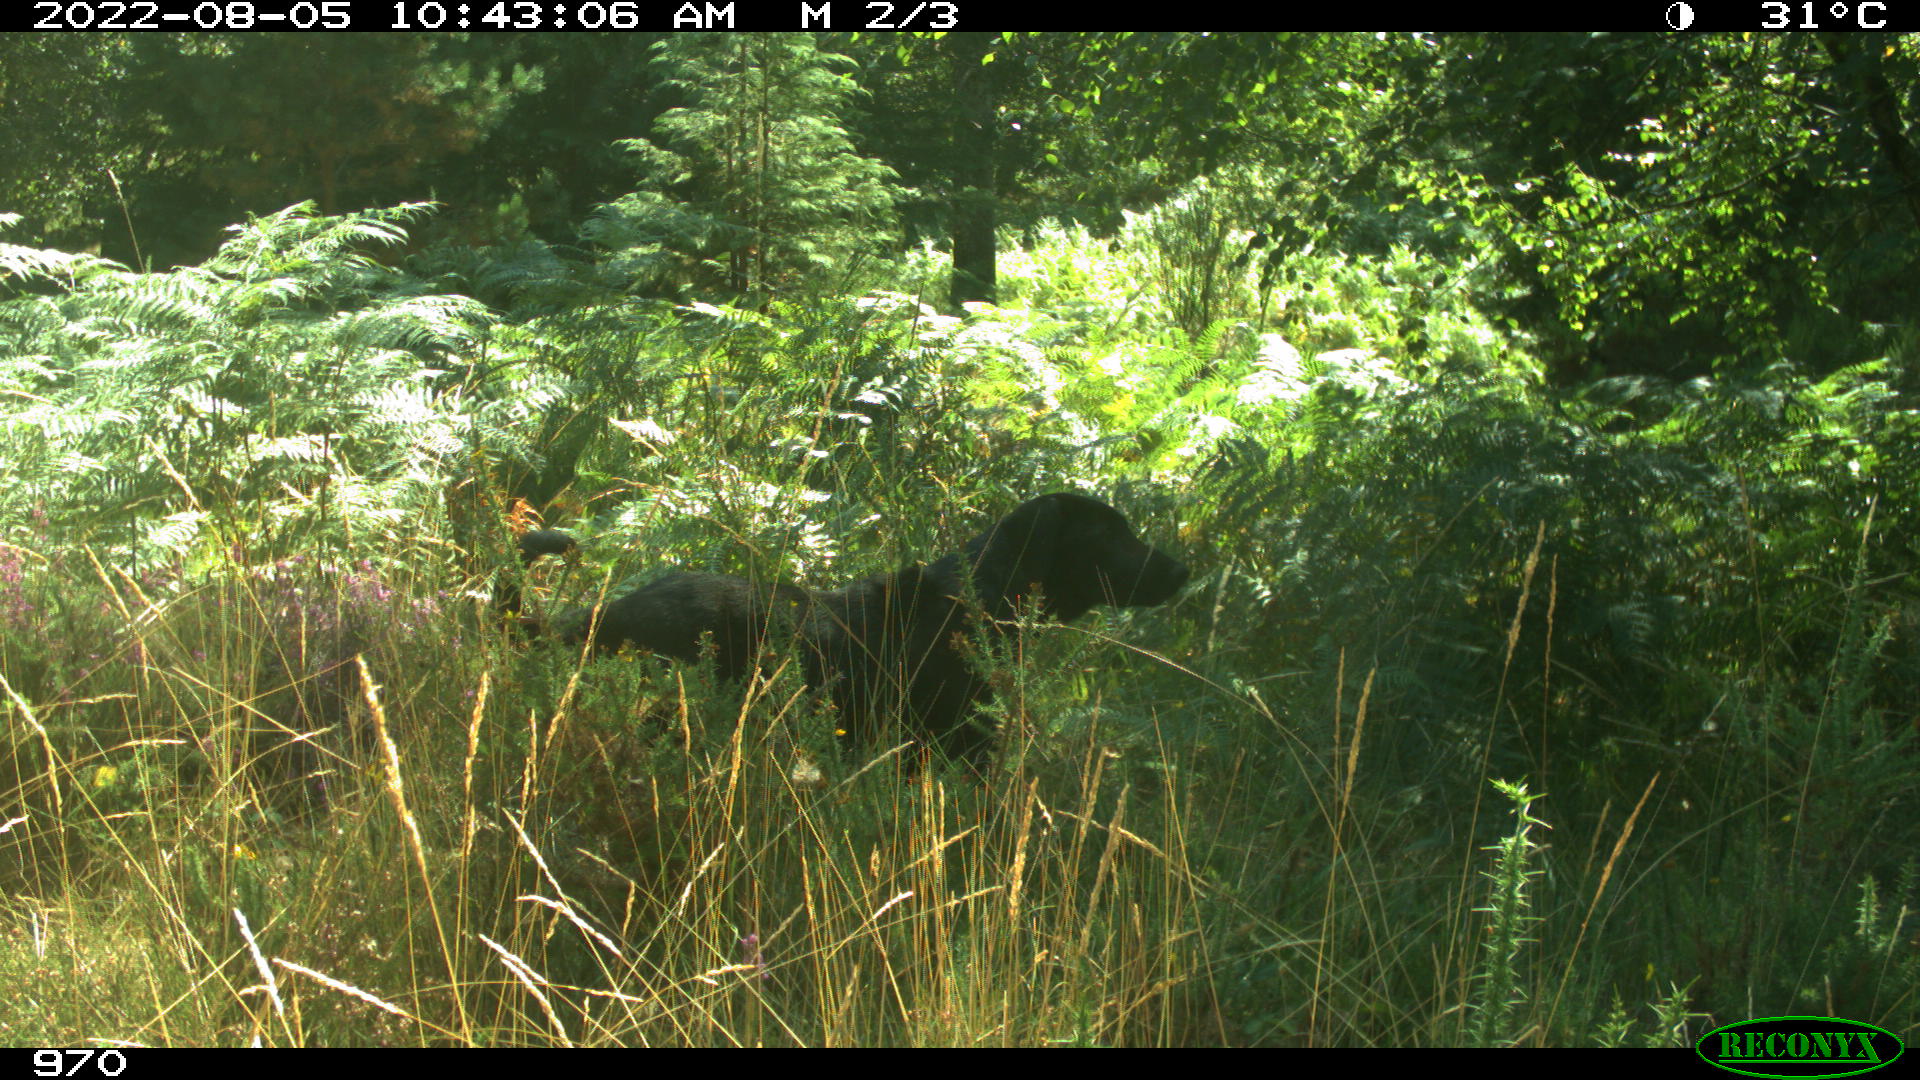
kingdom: Animalia
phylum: Chordata
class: Mammalia
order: Carnivora
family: Canidae
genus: Canis
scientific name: Canis lupus
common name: Gray wolf
